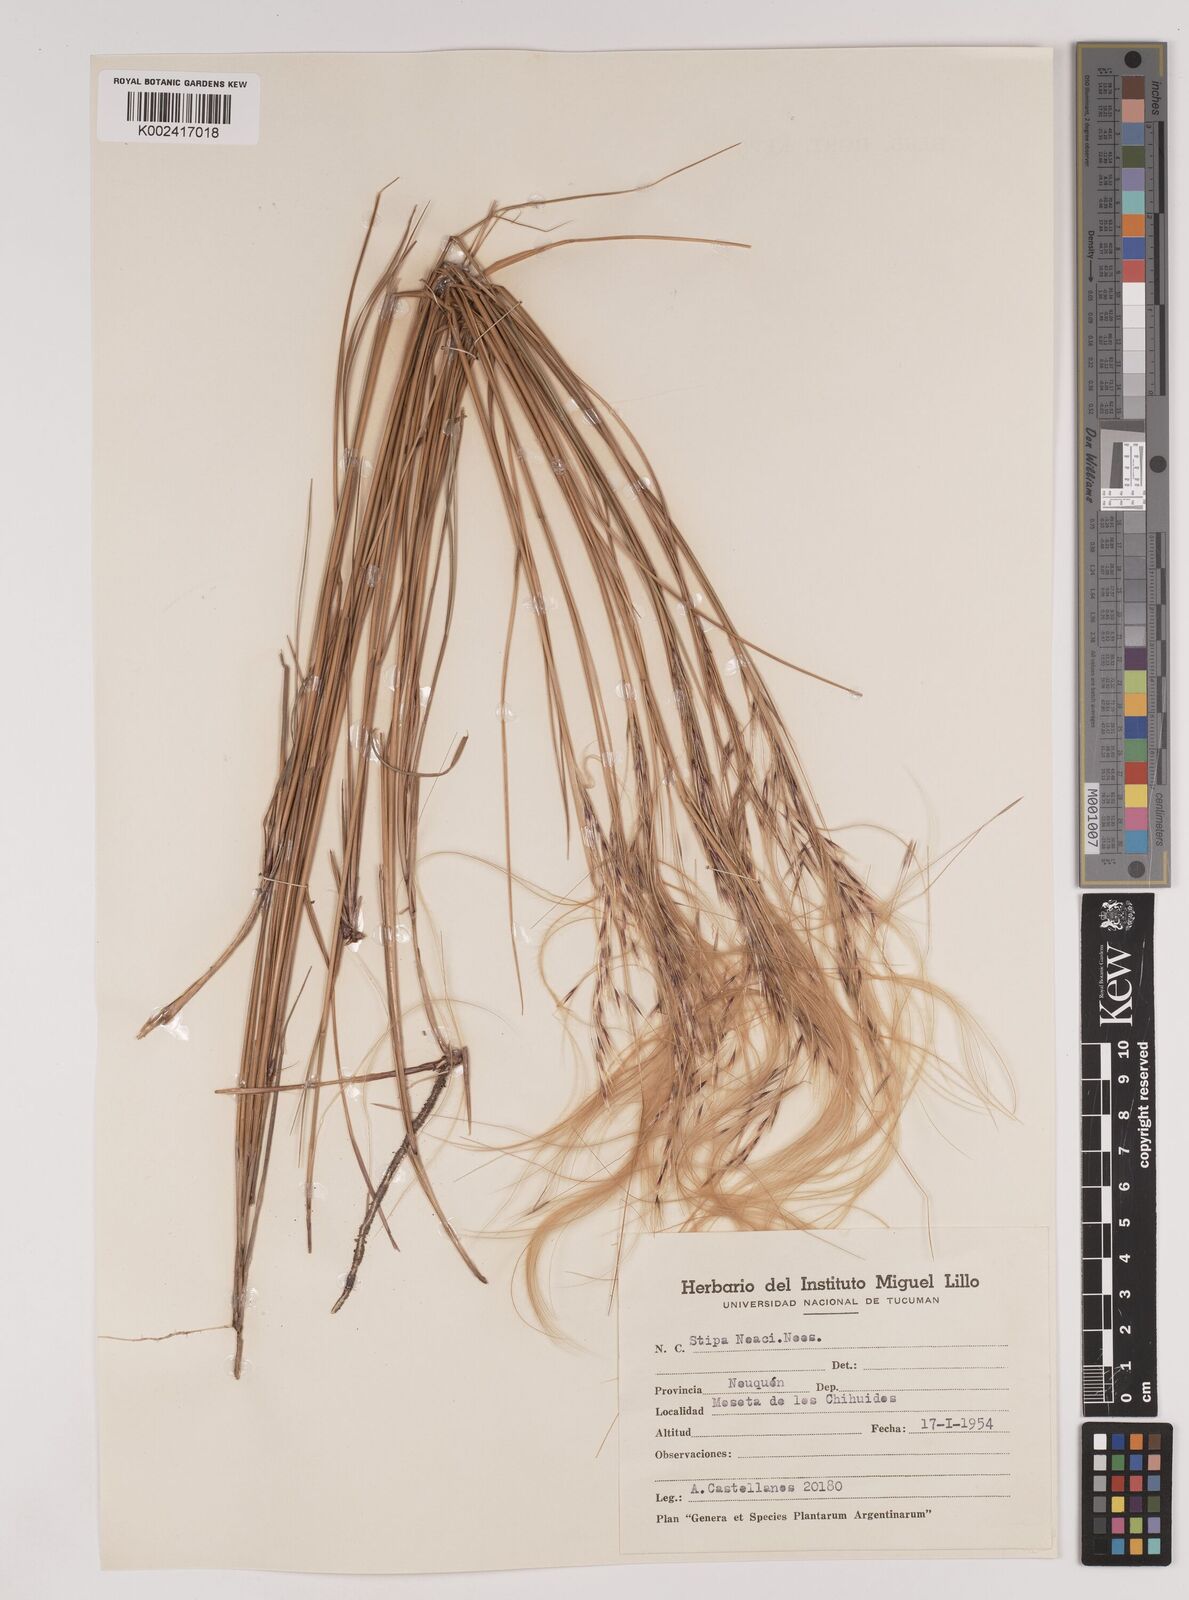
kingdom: Plantae
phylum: Tracheophyta
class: Liliopsida
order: Poales
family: Poaceae
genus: Stipa
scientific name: Stipa neaei
